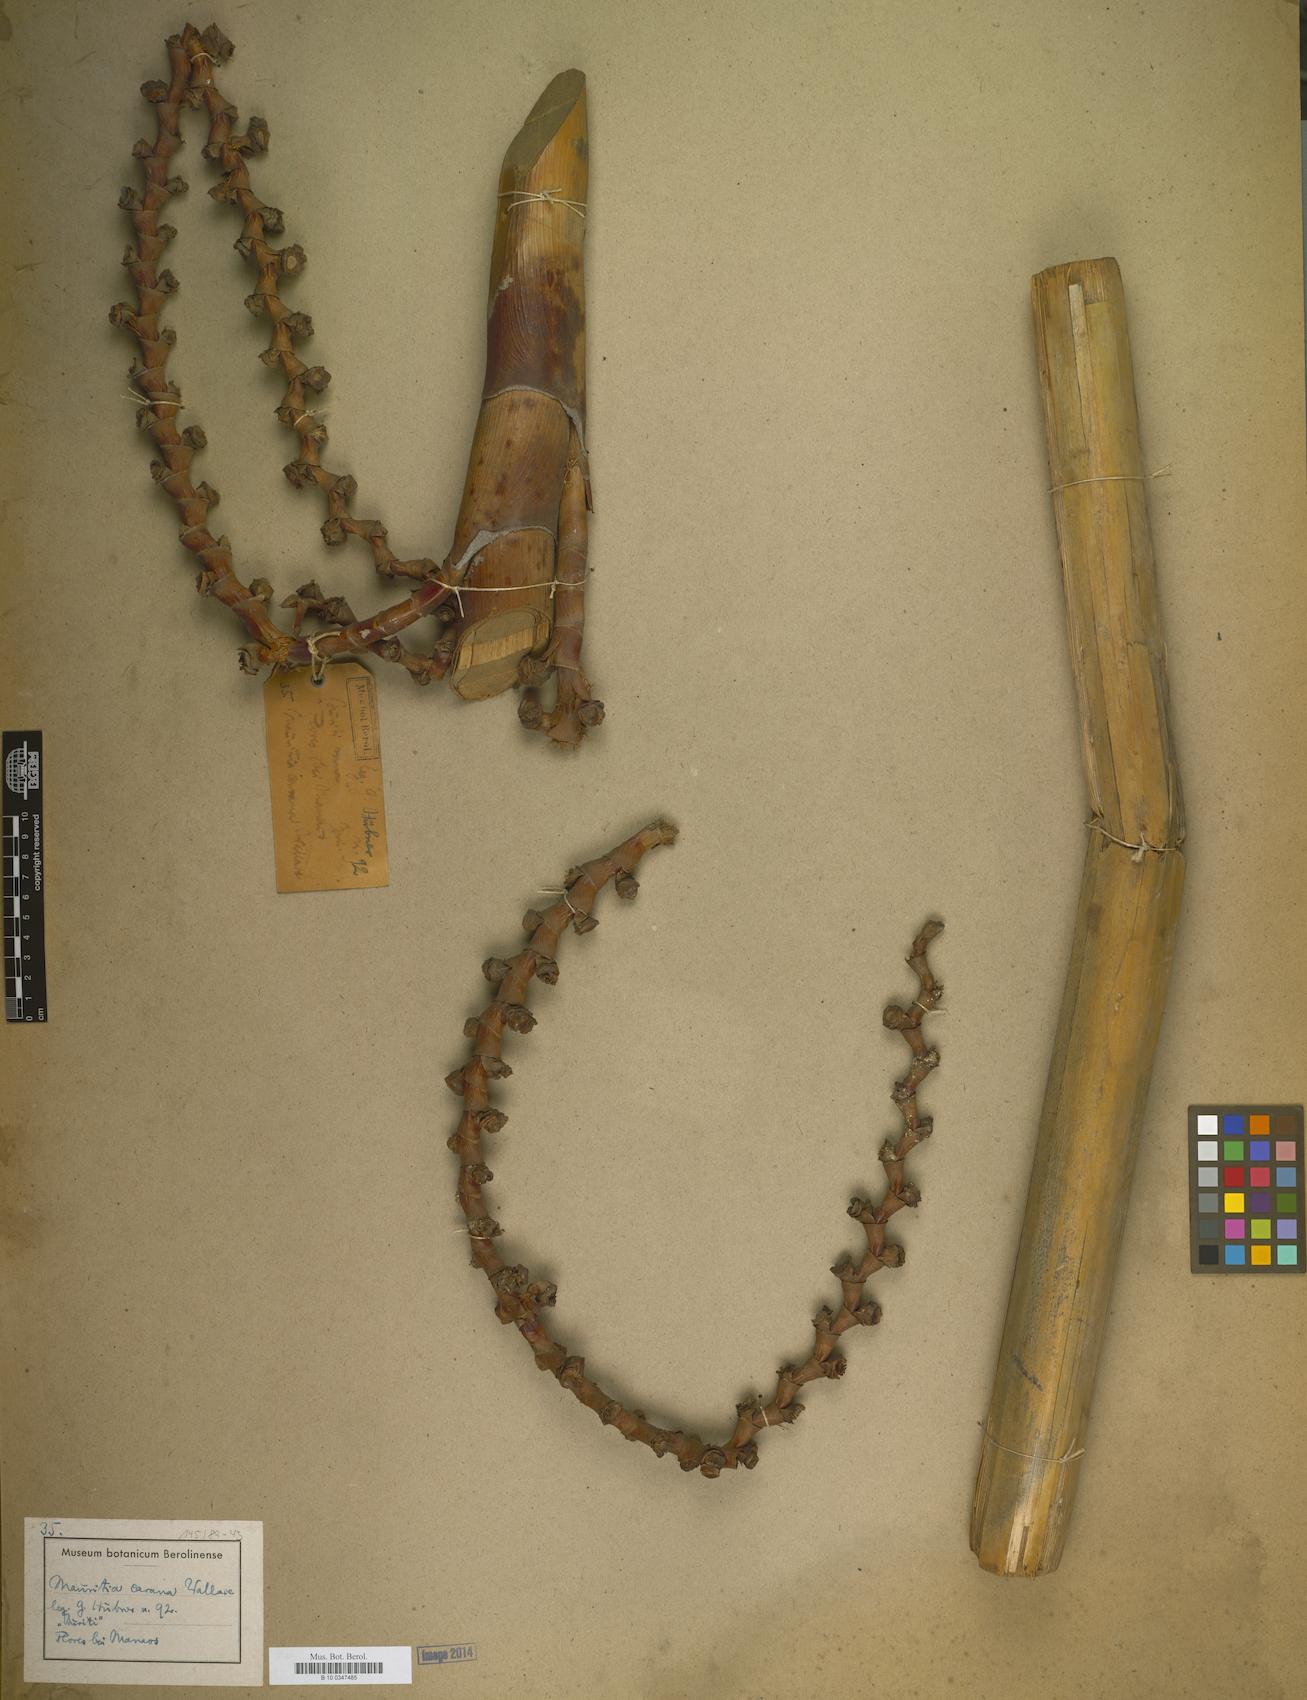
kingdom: Plantae
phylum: Tracheophyta
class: Liliopsida
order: Arecales
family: Arecaceae
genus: Mauritia
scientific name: Mauritia carana
